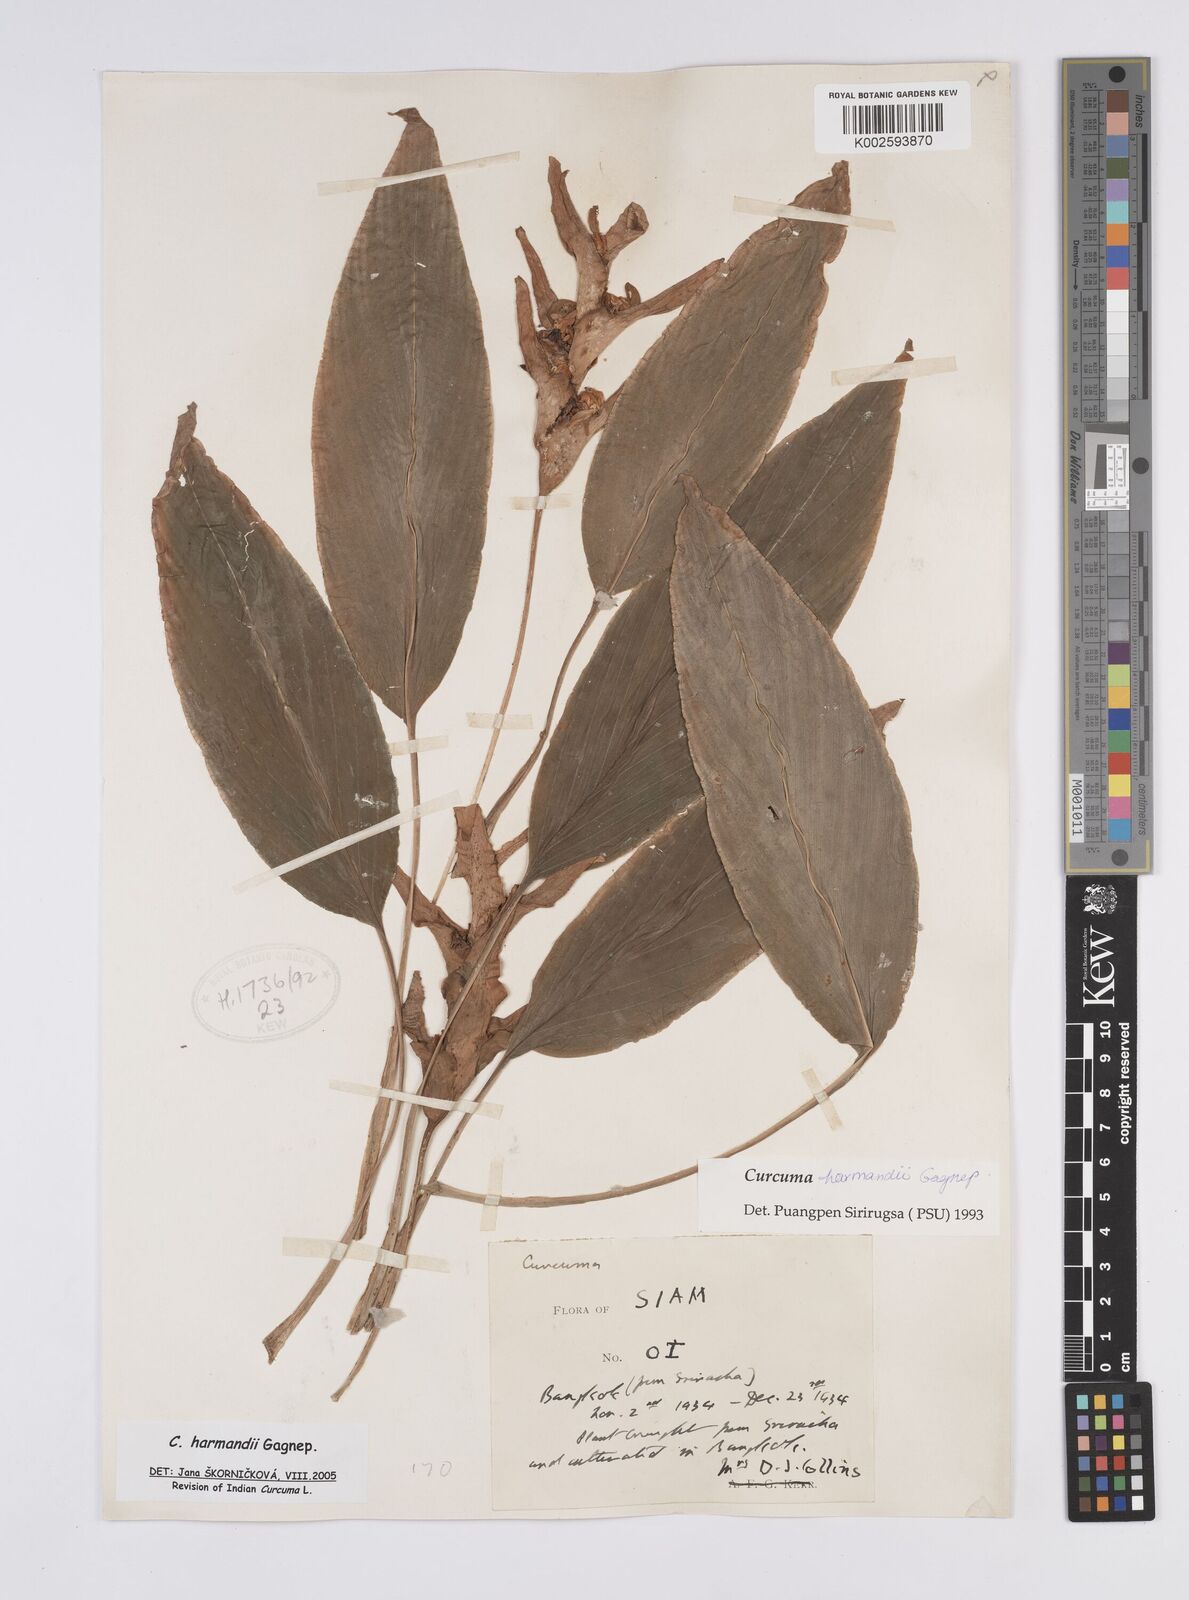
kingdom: Plantae
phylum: Tracheophyta
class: Liliopsida
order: Zingiberales
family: Zingiberaceae
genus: Curcuma
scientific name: Curcuma harmandii
